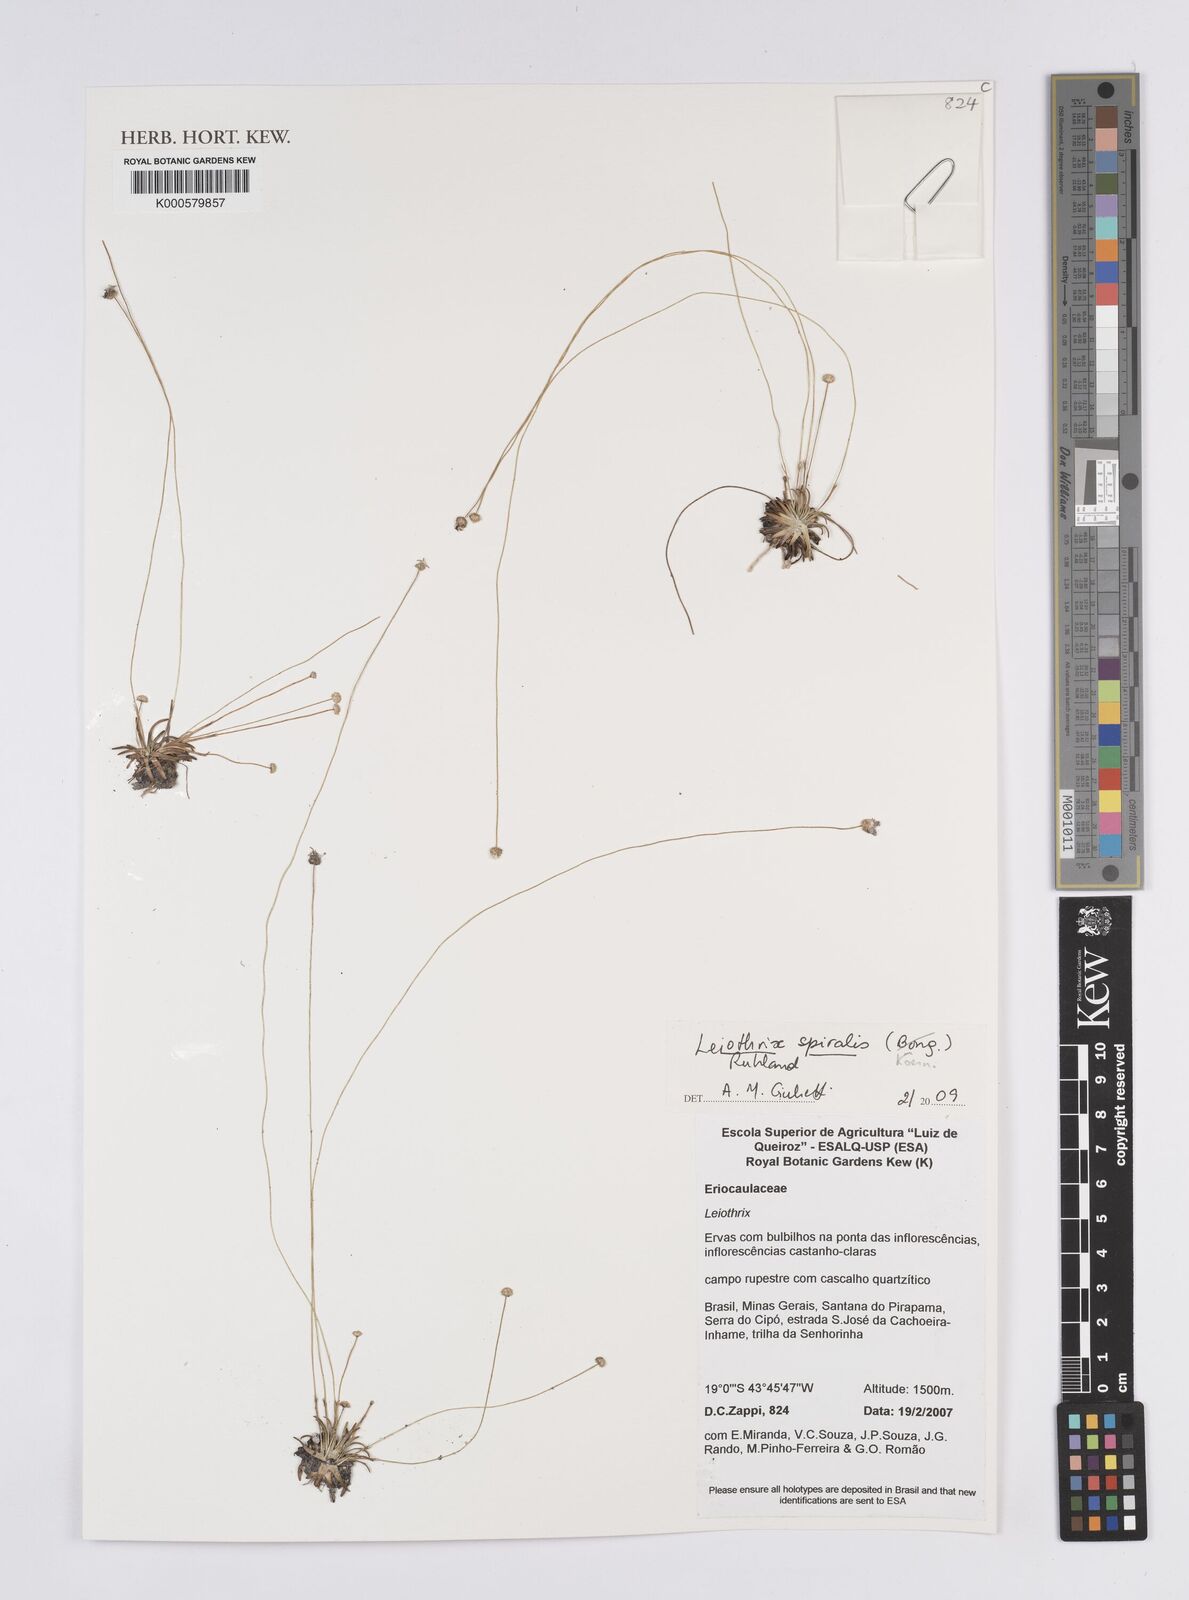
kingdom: Plantae
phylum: Tracheophyta
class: Liliopsida
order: Poales
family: Eriocaulaceae
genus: Leiothrix
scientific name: Leiothrix spiralis
